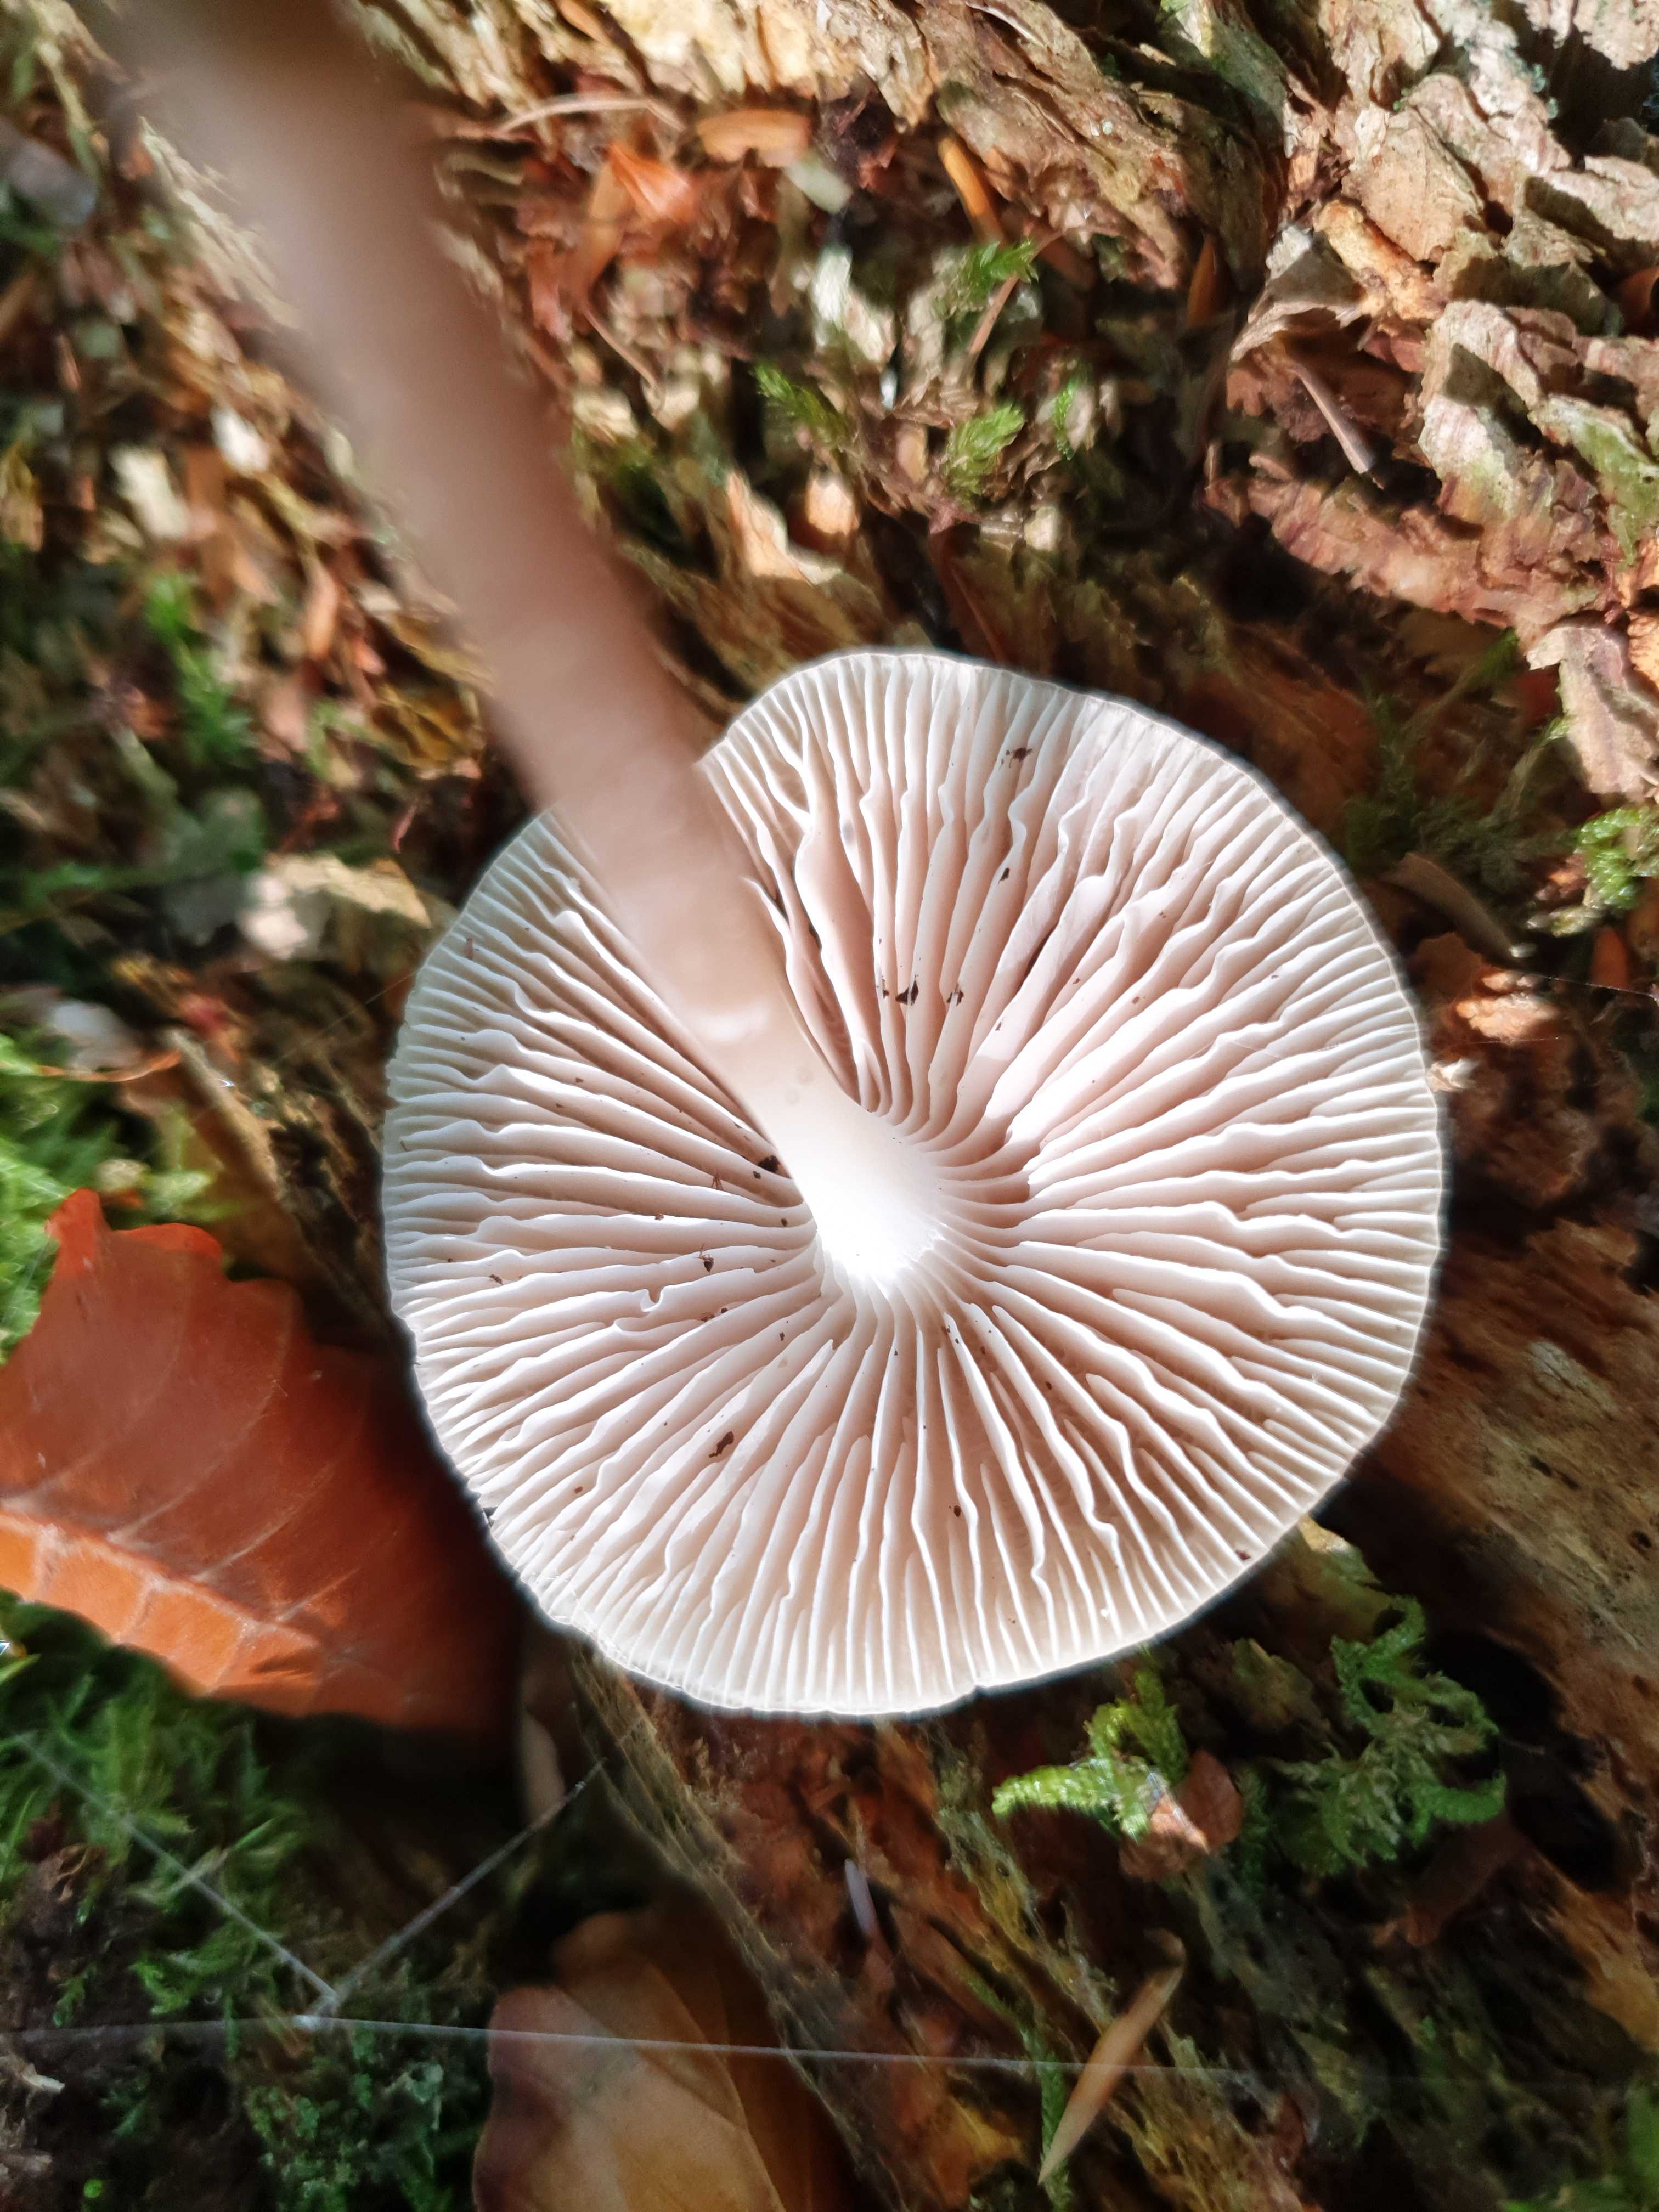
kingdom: Fungi
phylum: Basidiomycota
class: Agaricomycetes
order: Agaricales
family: Mycenaceae
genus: Mycena
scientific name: Mycena galericulata
